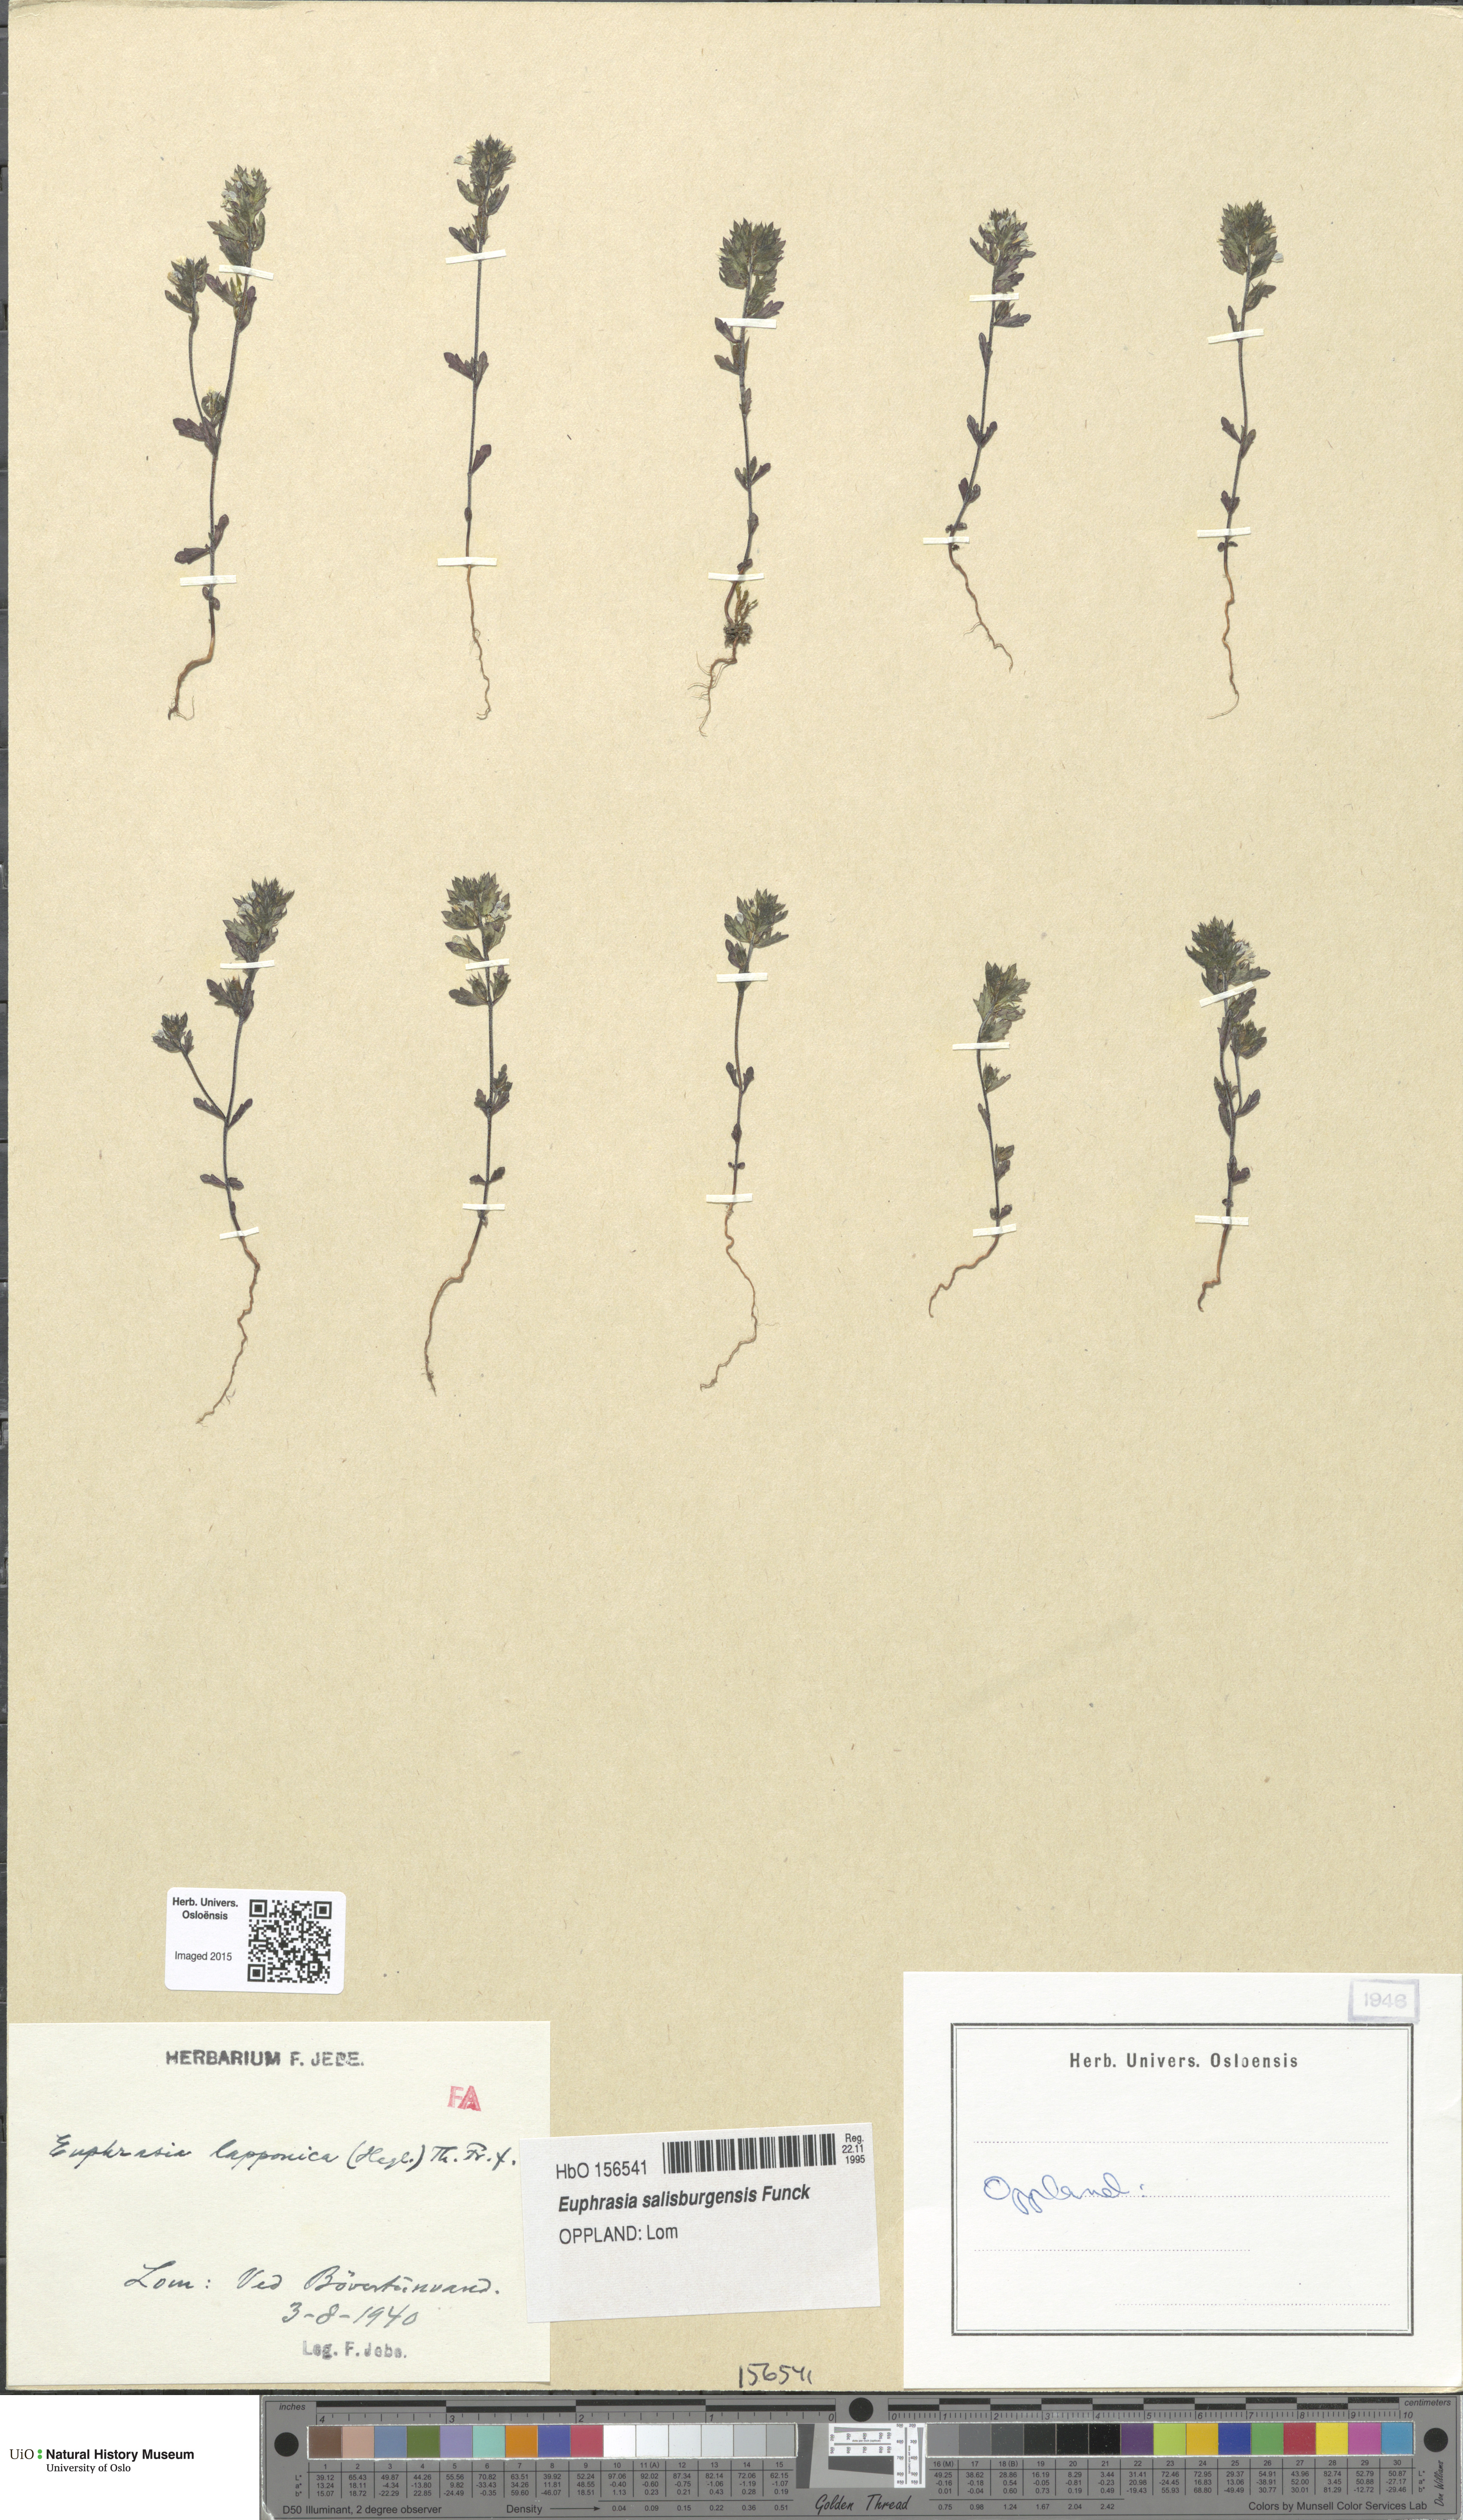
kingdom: Plantae
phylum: Tracheophyta
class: Magnoliopsida
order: Lamiales
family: Orobanchaceae
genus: Euphrasia
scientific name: Euphrasia salisburgensis
